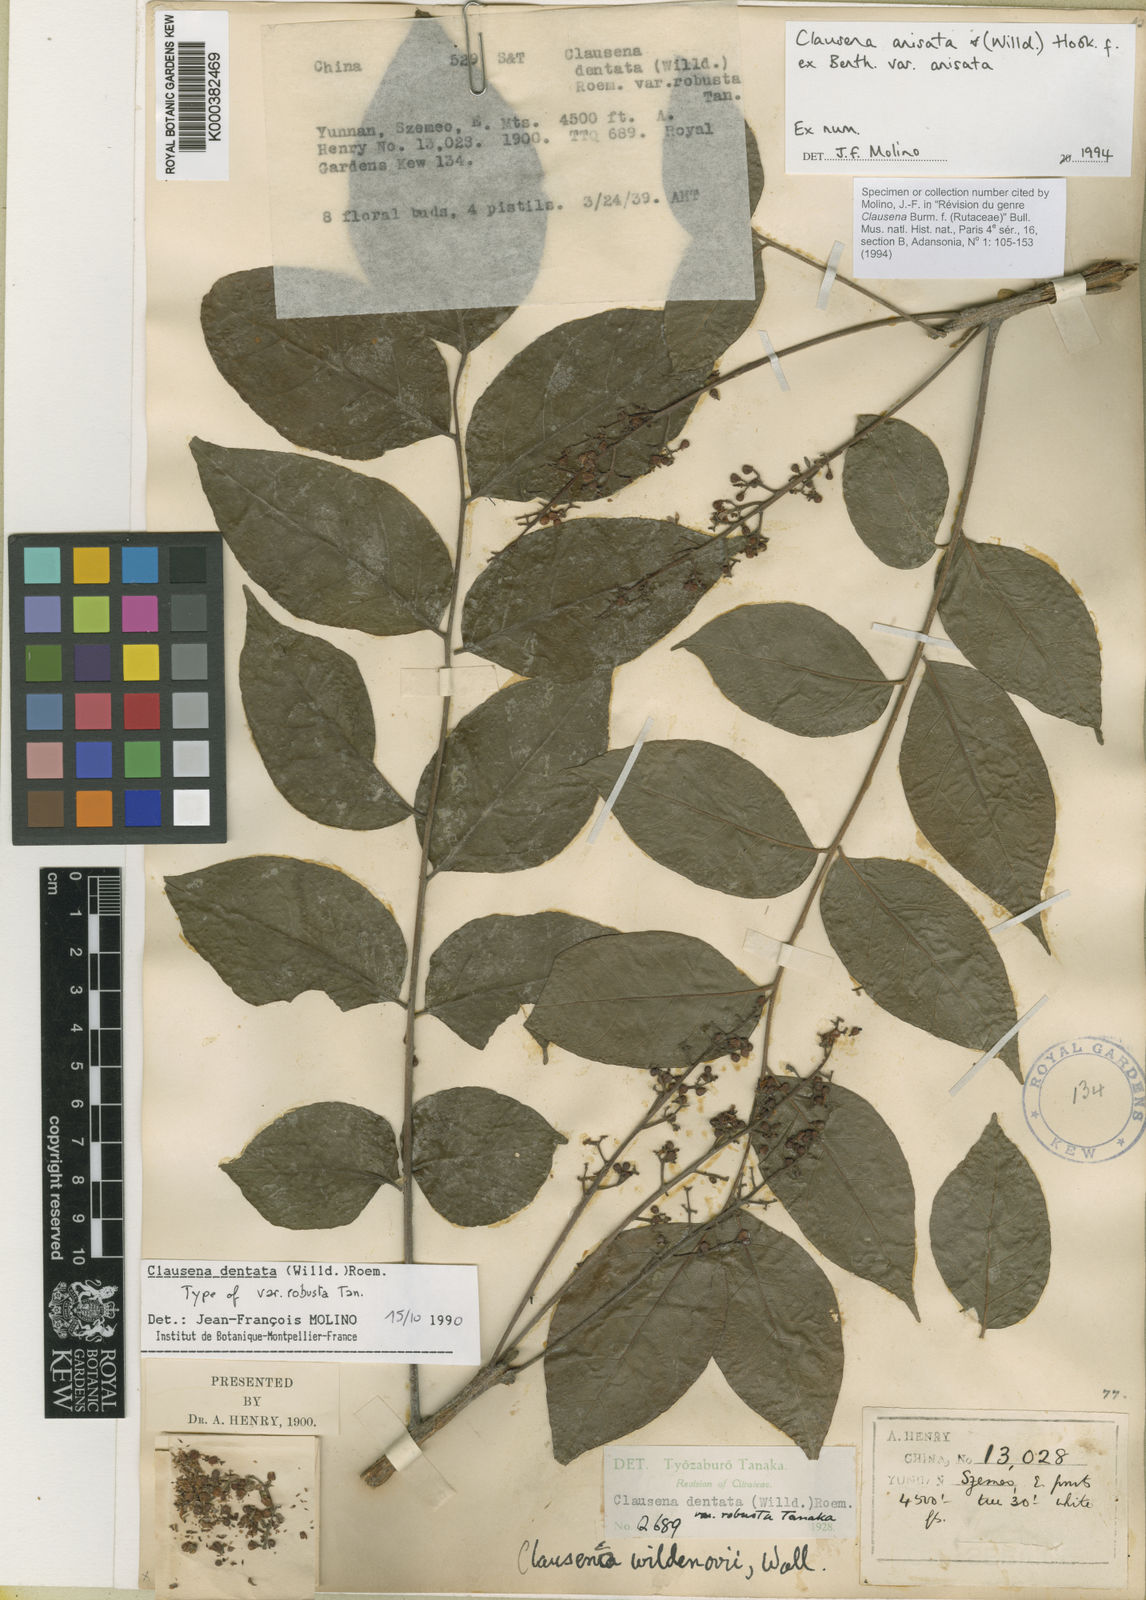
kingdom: Plantae
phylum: Tracheophyta
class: Magnoliopsida
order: Sapindales
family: Rutaceae
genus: Clausena
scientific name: Clausena anisata
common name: Horsewood
